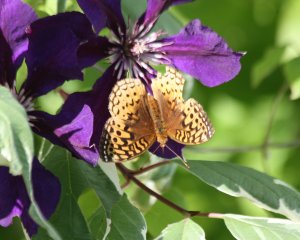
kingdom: Animalia
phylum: Arthropoda
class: Insecta
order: Lepidoptera
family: Nymphalidae
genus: Speyeria
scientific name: Speyeria cybele
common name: Great Spangled Fritillary
